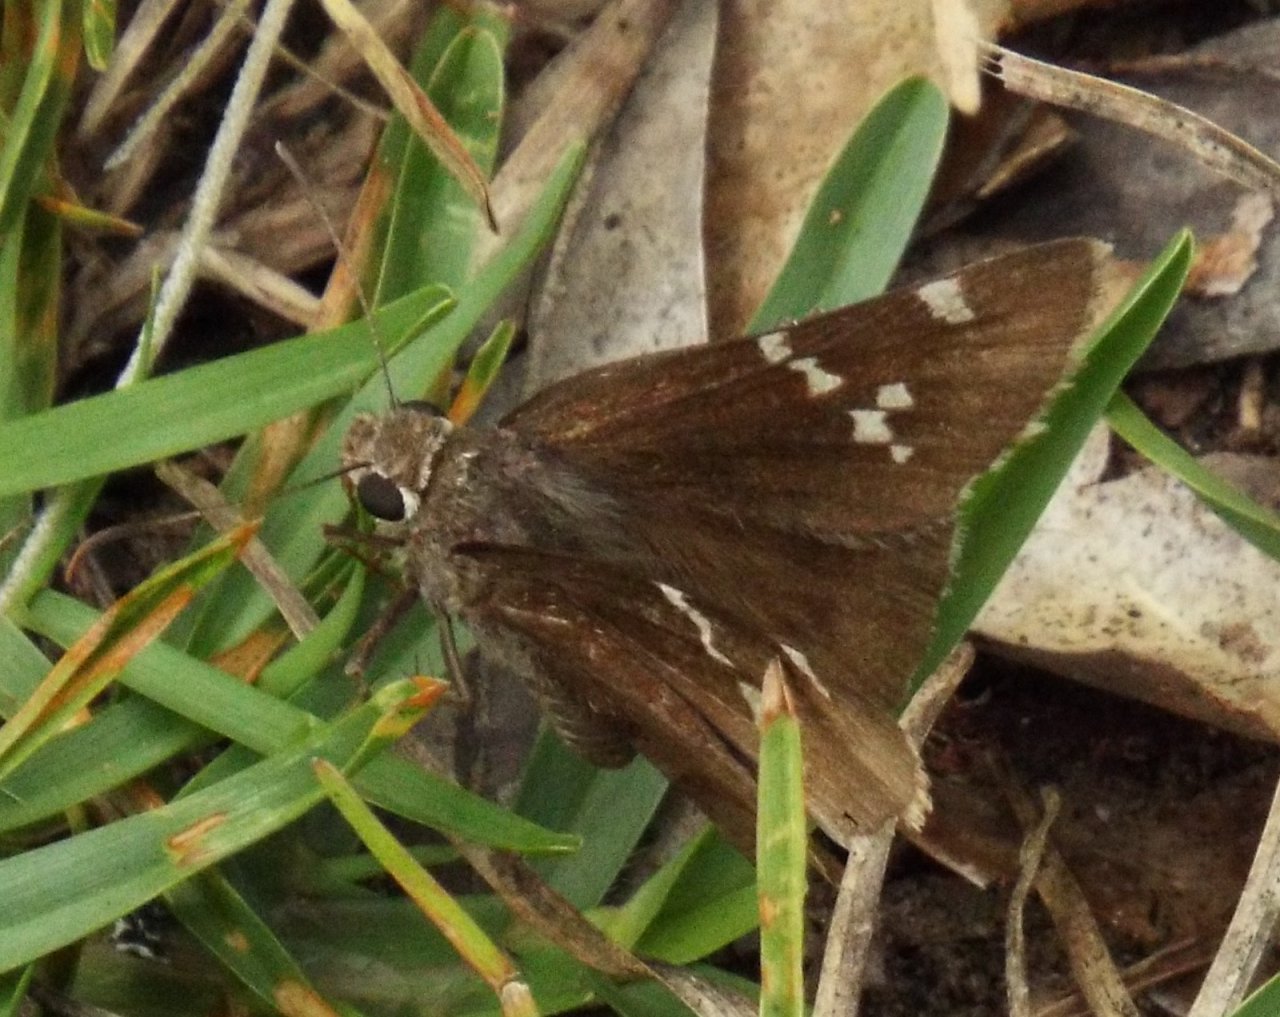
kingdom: Animalia
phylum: Arthropoda
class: Insecta
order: Lepidoptera
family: Hesperiidae
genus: Autochton
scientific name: Autochton
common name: Southern Cloudywing
